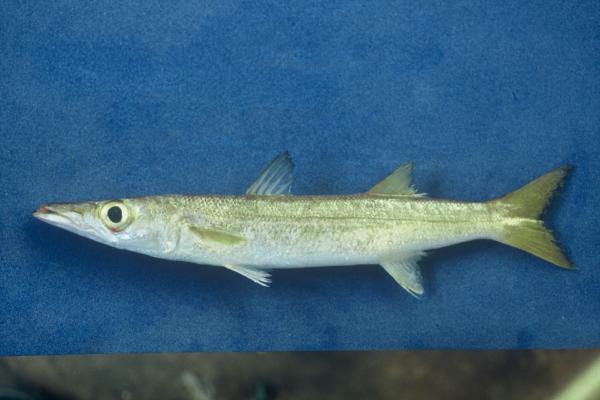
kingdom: Animalia
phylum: Chordata
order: Perciformes
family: Sphyraenidae
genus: Sphyraena
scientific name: Sphyraena flavicauda
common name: Yellowtail barracuda
